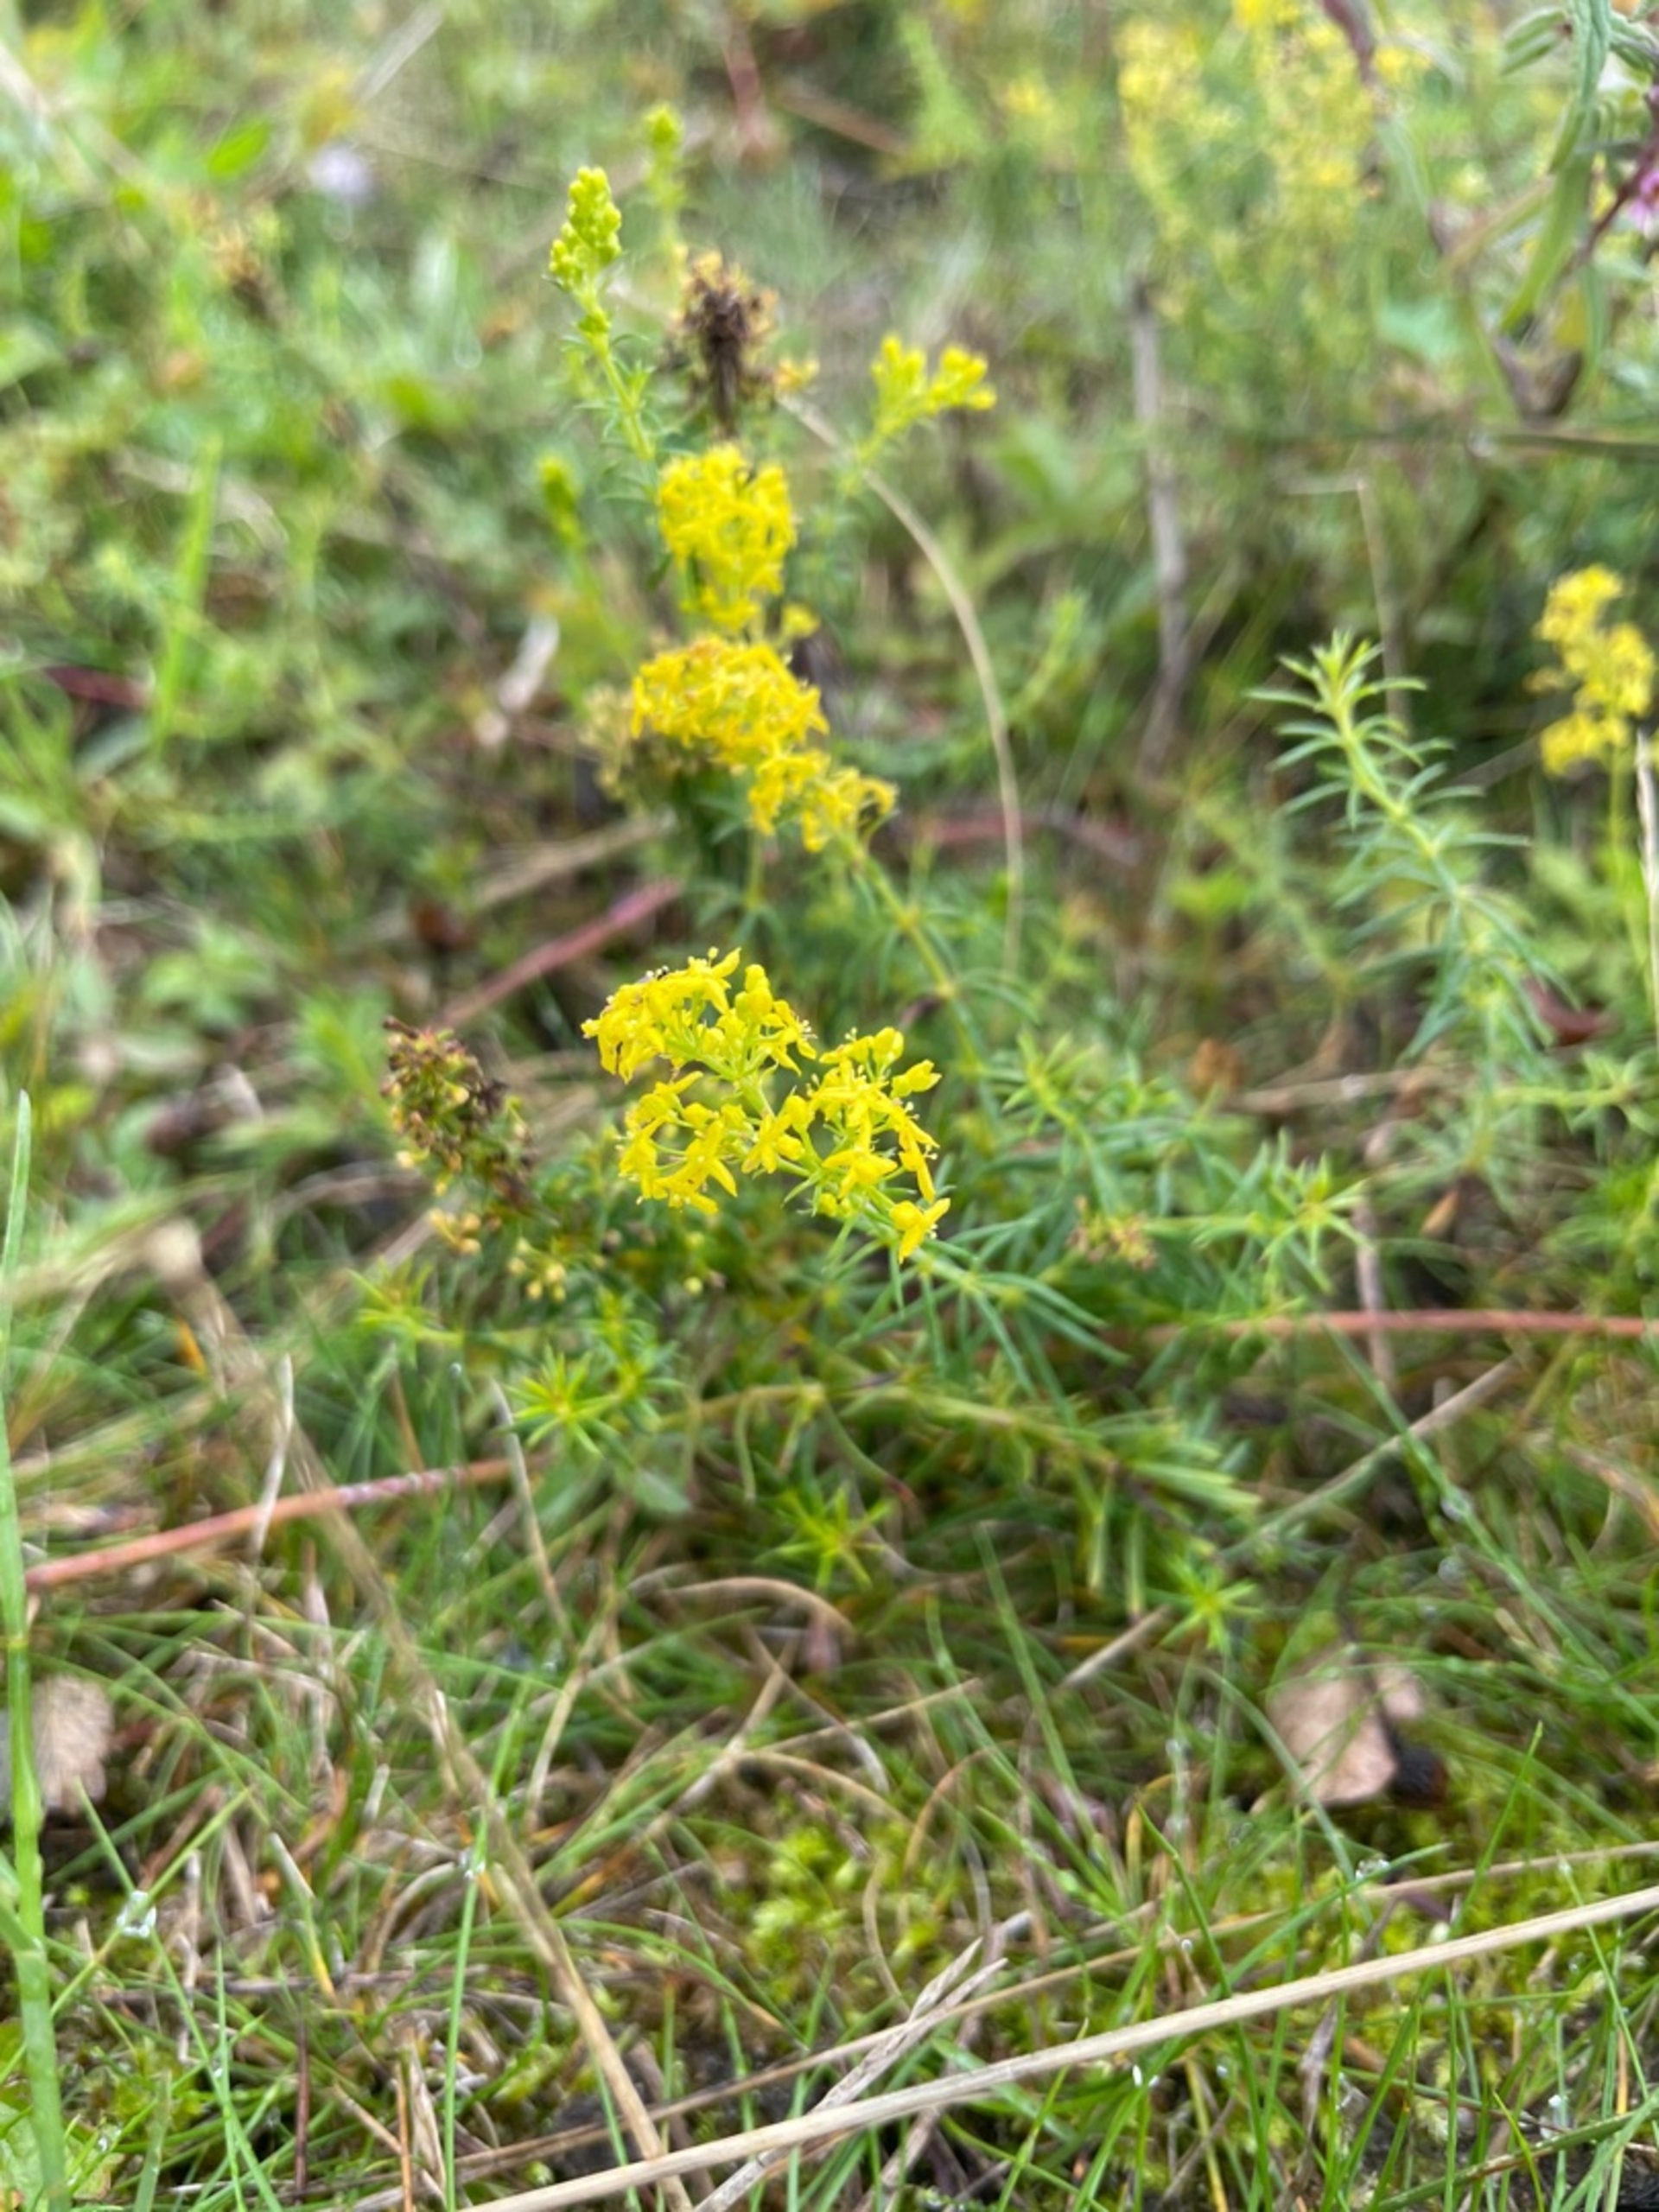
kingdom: Plantae
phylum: Tracheophyta
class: Magnoliopsida
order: Gentianales
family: Rubiaceae
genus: Galium
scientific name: Galium verum
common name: Gul snerre
